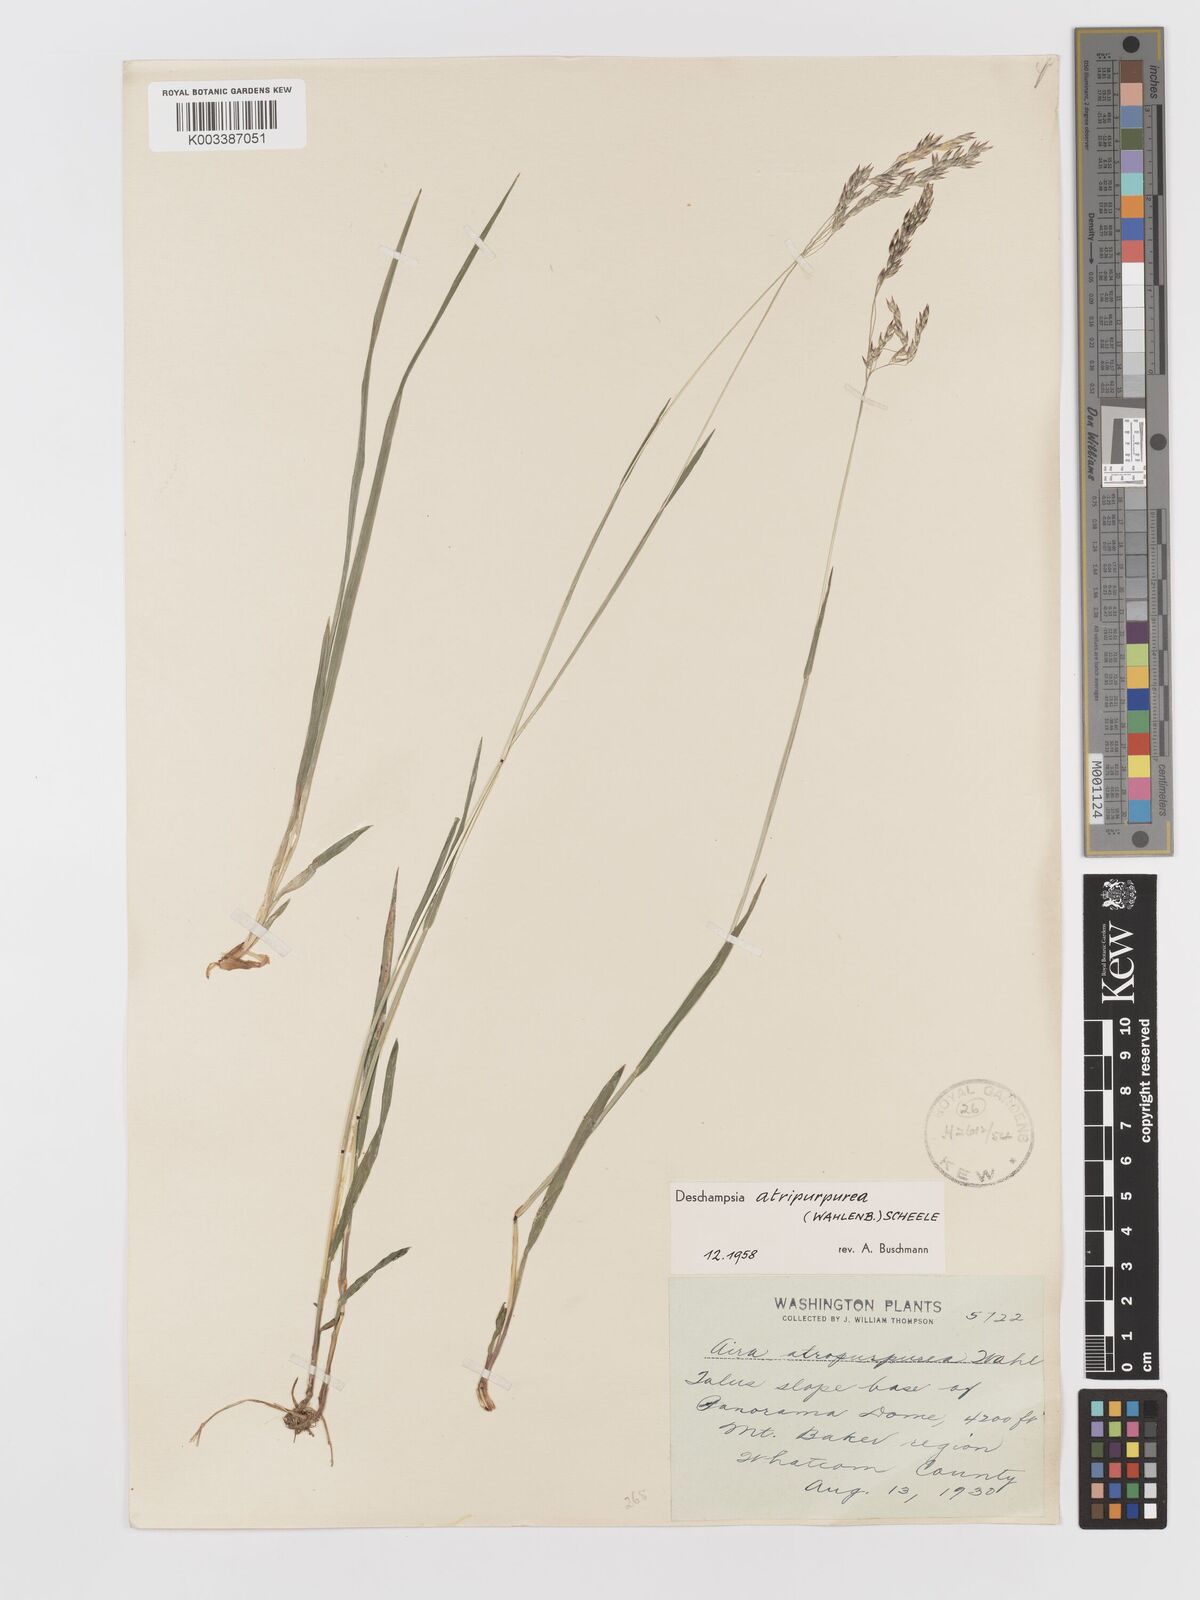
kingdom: Plantae
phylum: Tracheophyta
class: Liliopsida
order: Poales
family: Poaceae
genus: Vahlodea
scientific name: Vahlodea atropurpurea
